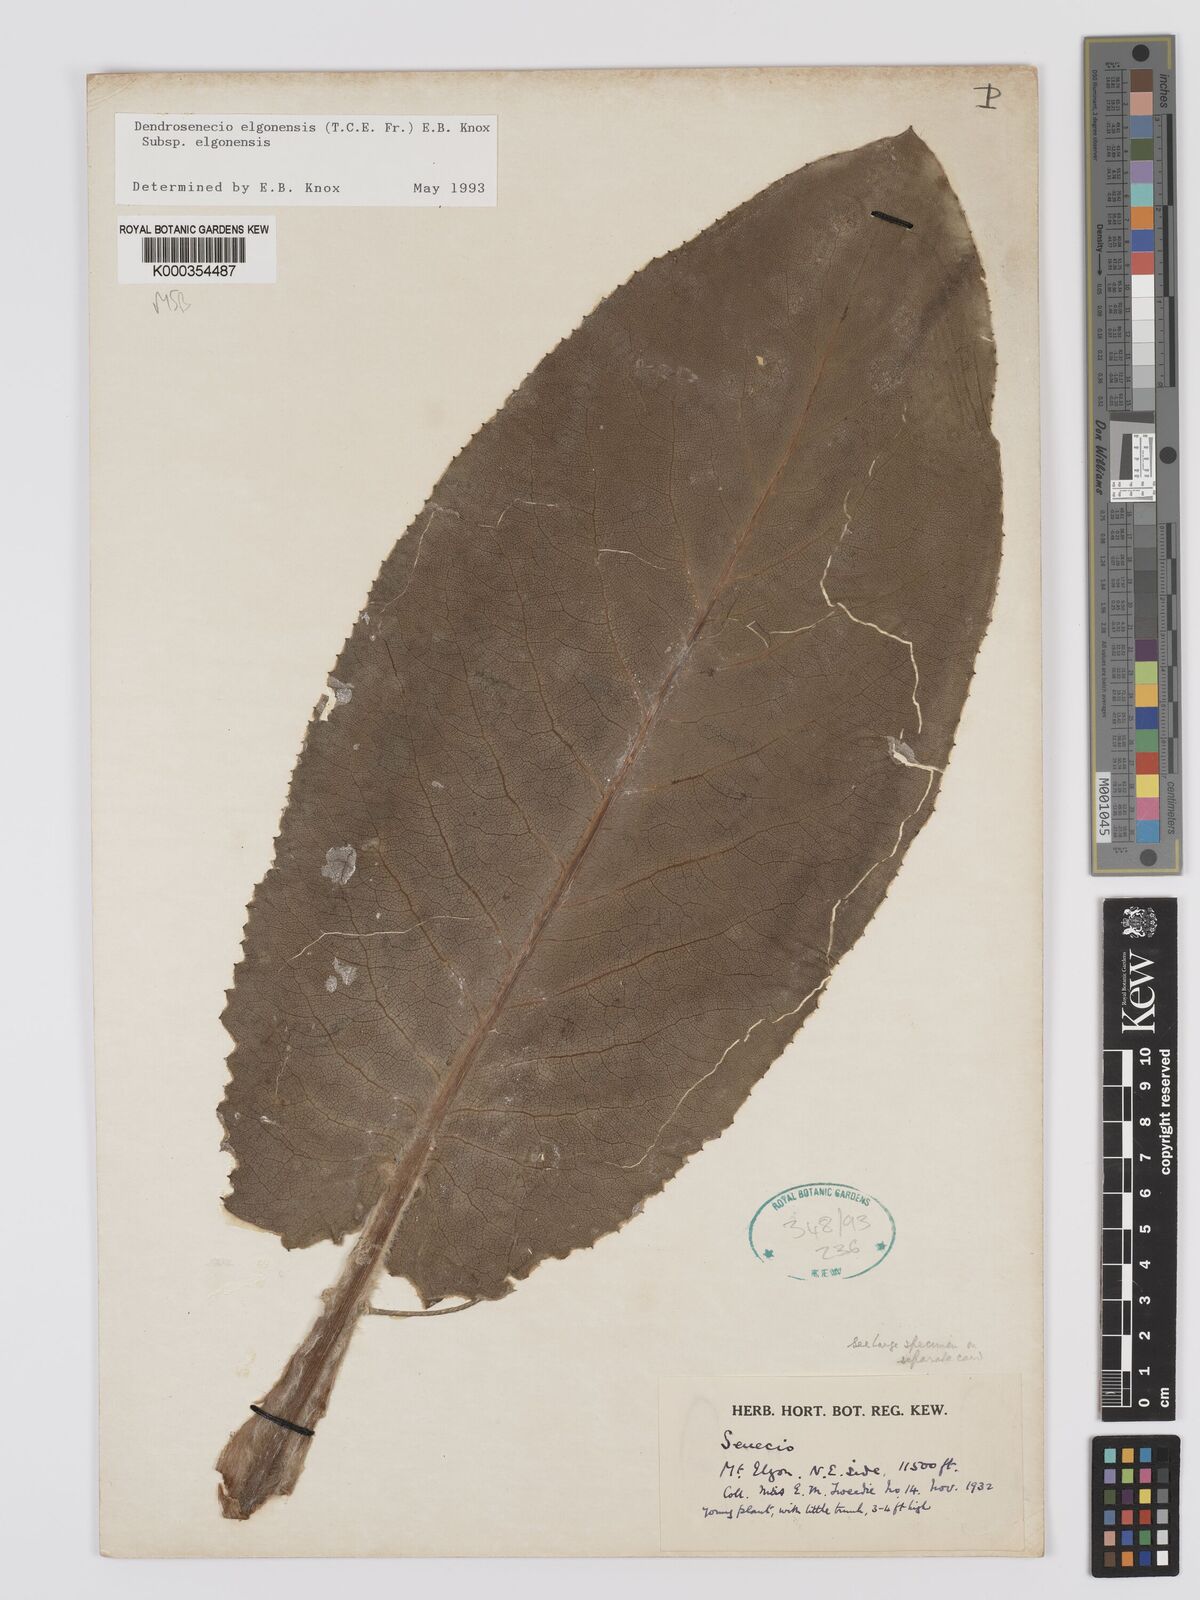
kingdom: Plantae
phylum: Tracheophyta
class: Magnoliopsida
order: Asterales
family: Asteraceae
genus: Dendrosenecio
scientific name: Dendrosenecio elgonensis
